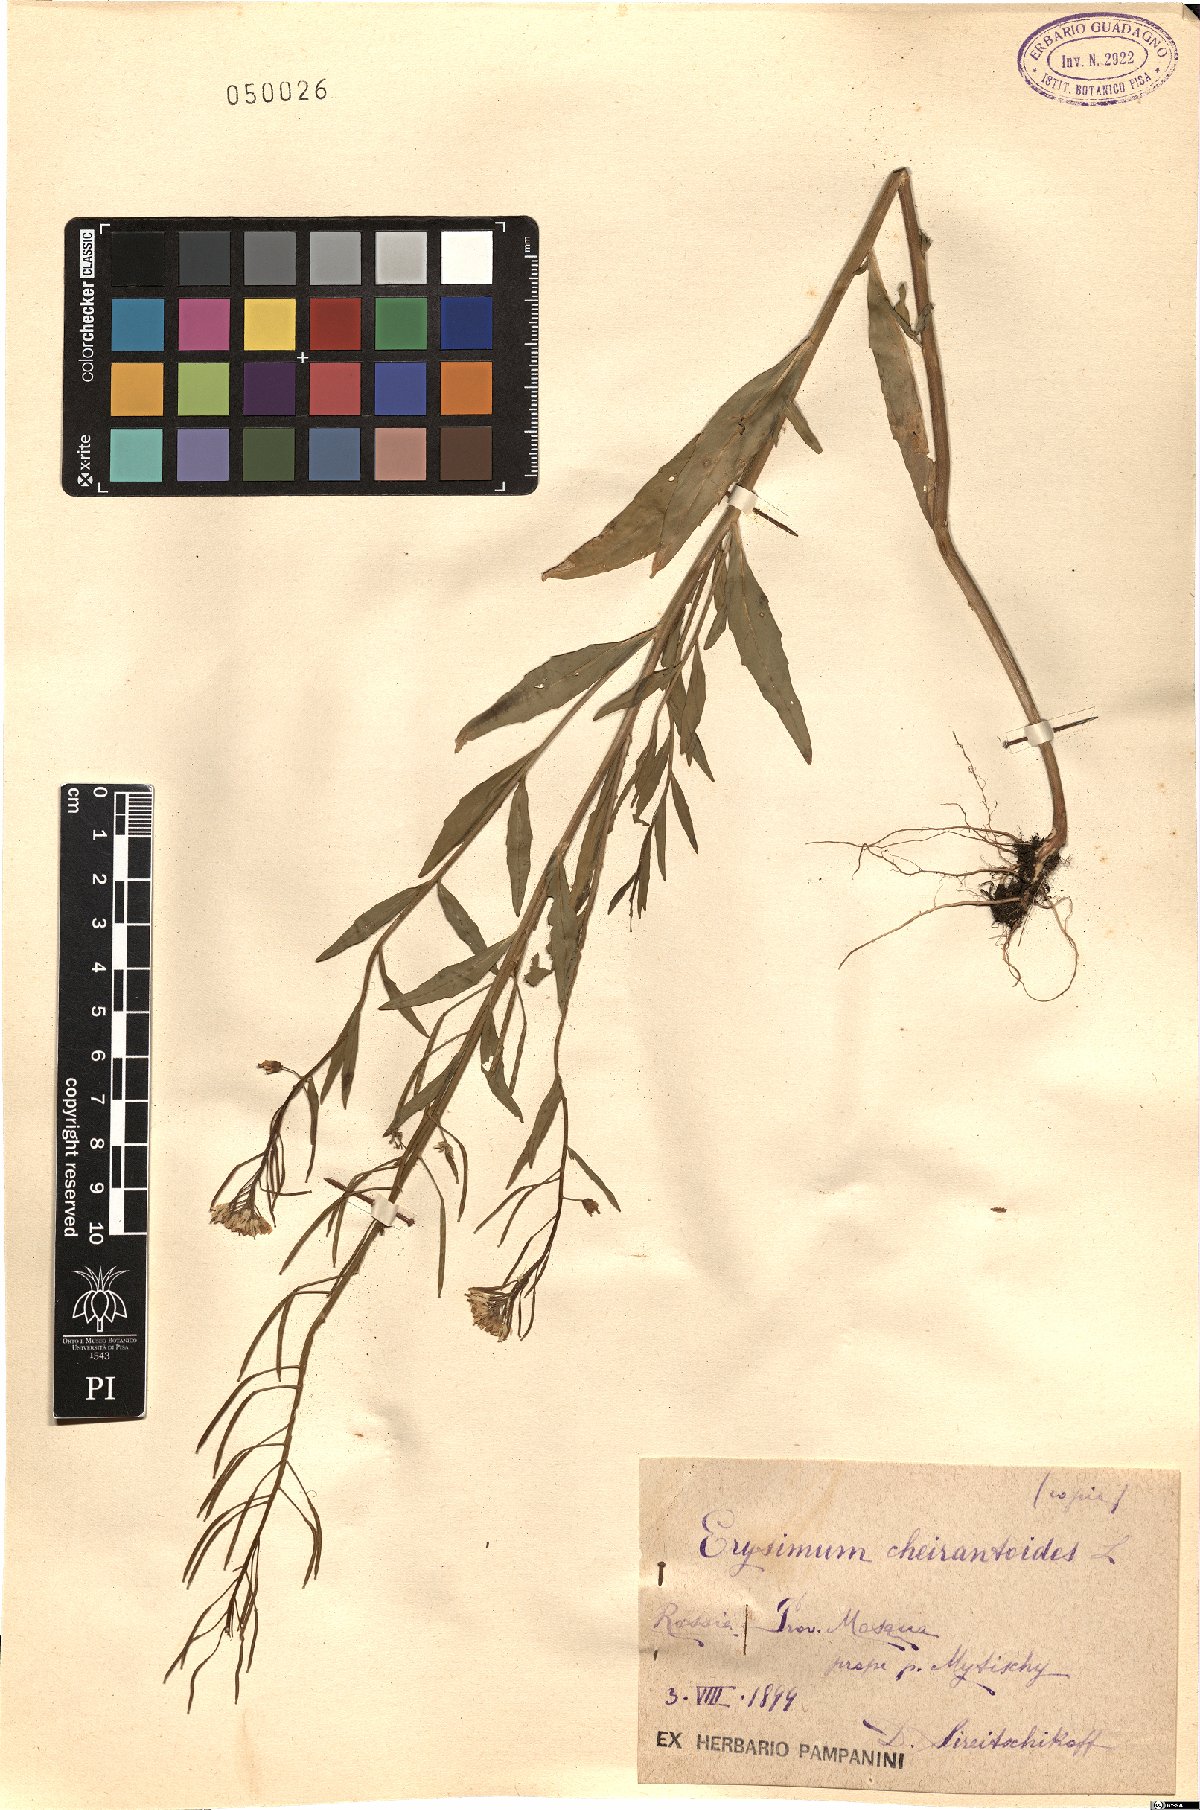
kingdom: Plantae
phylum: Tracheophyta
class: Magnoliopsida
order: Brassicales
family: Brassicaceae
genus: Erysimum
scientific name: Erysimum cheiranthoides
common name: Treacle mustard
